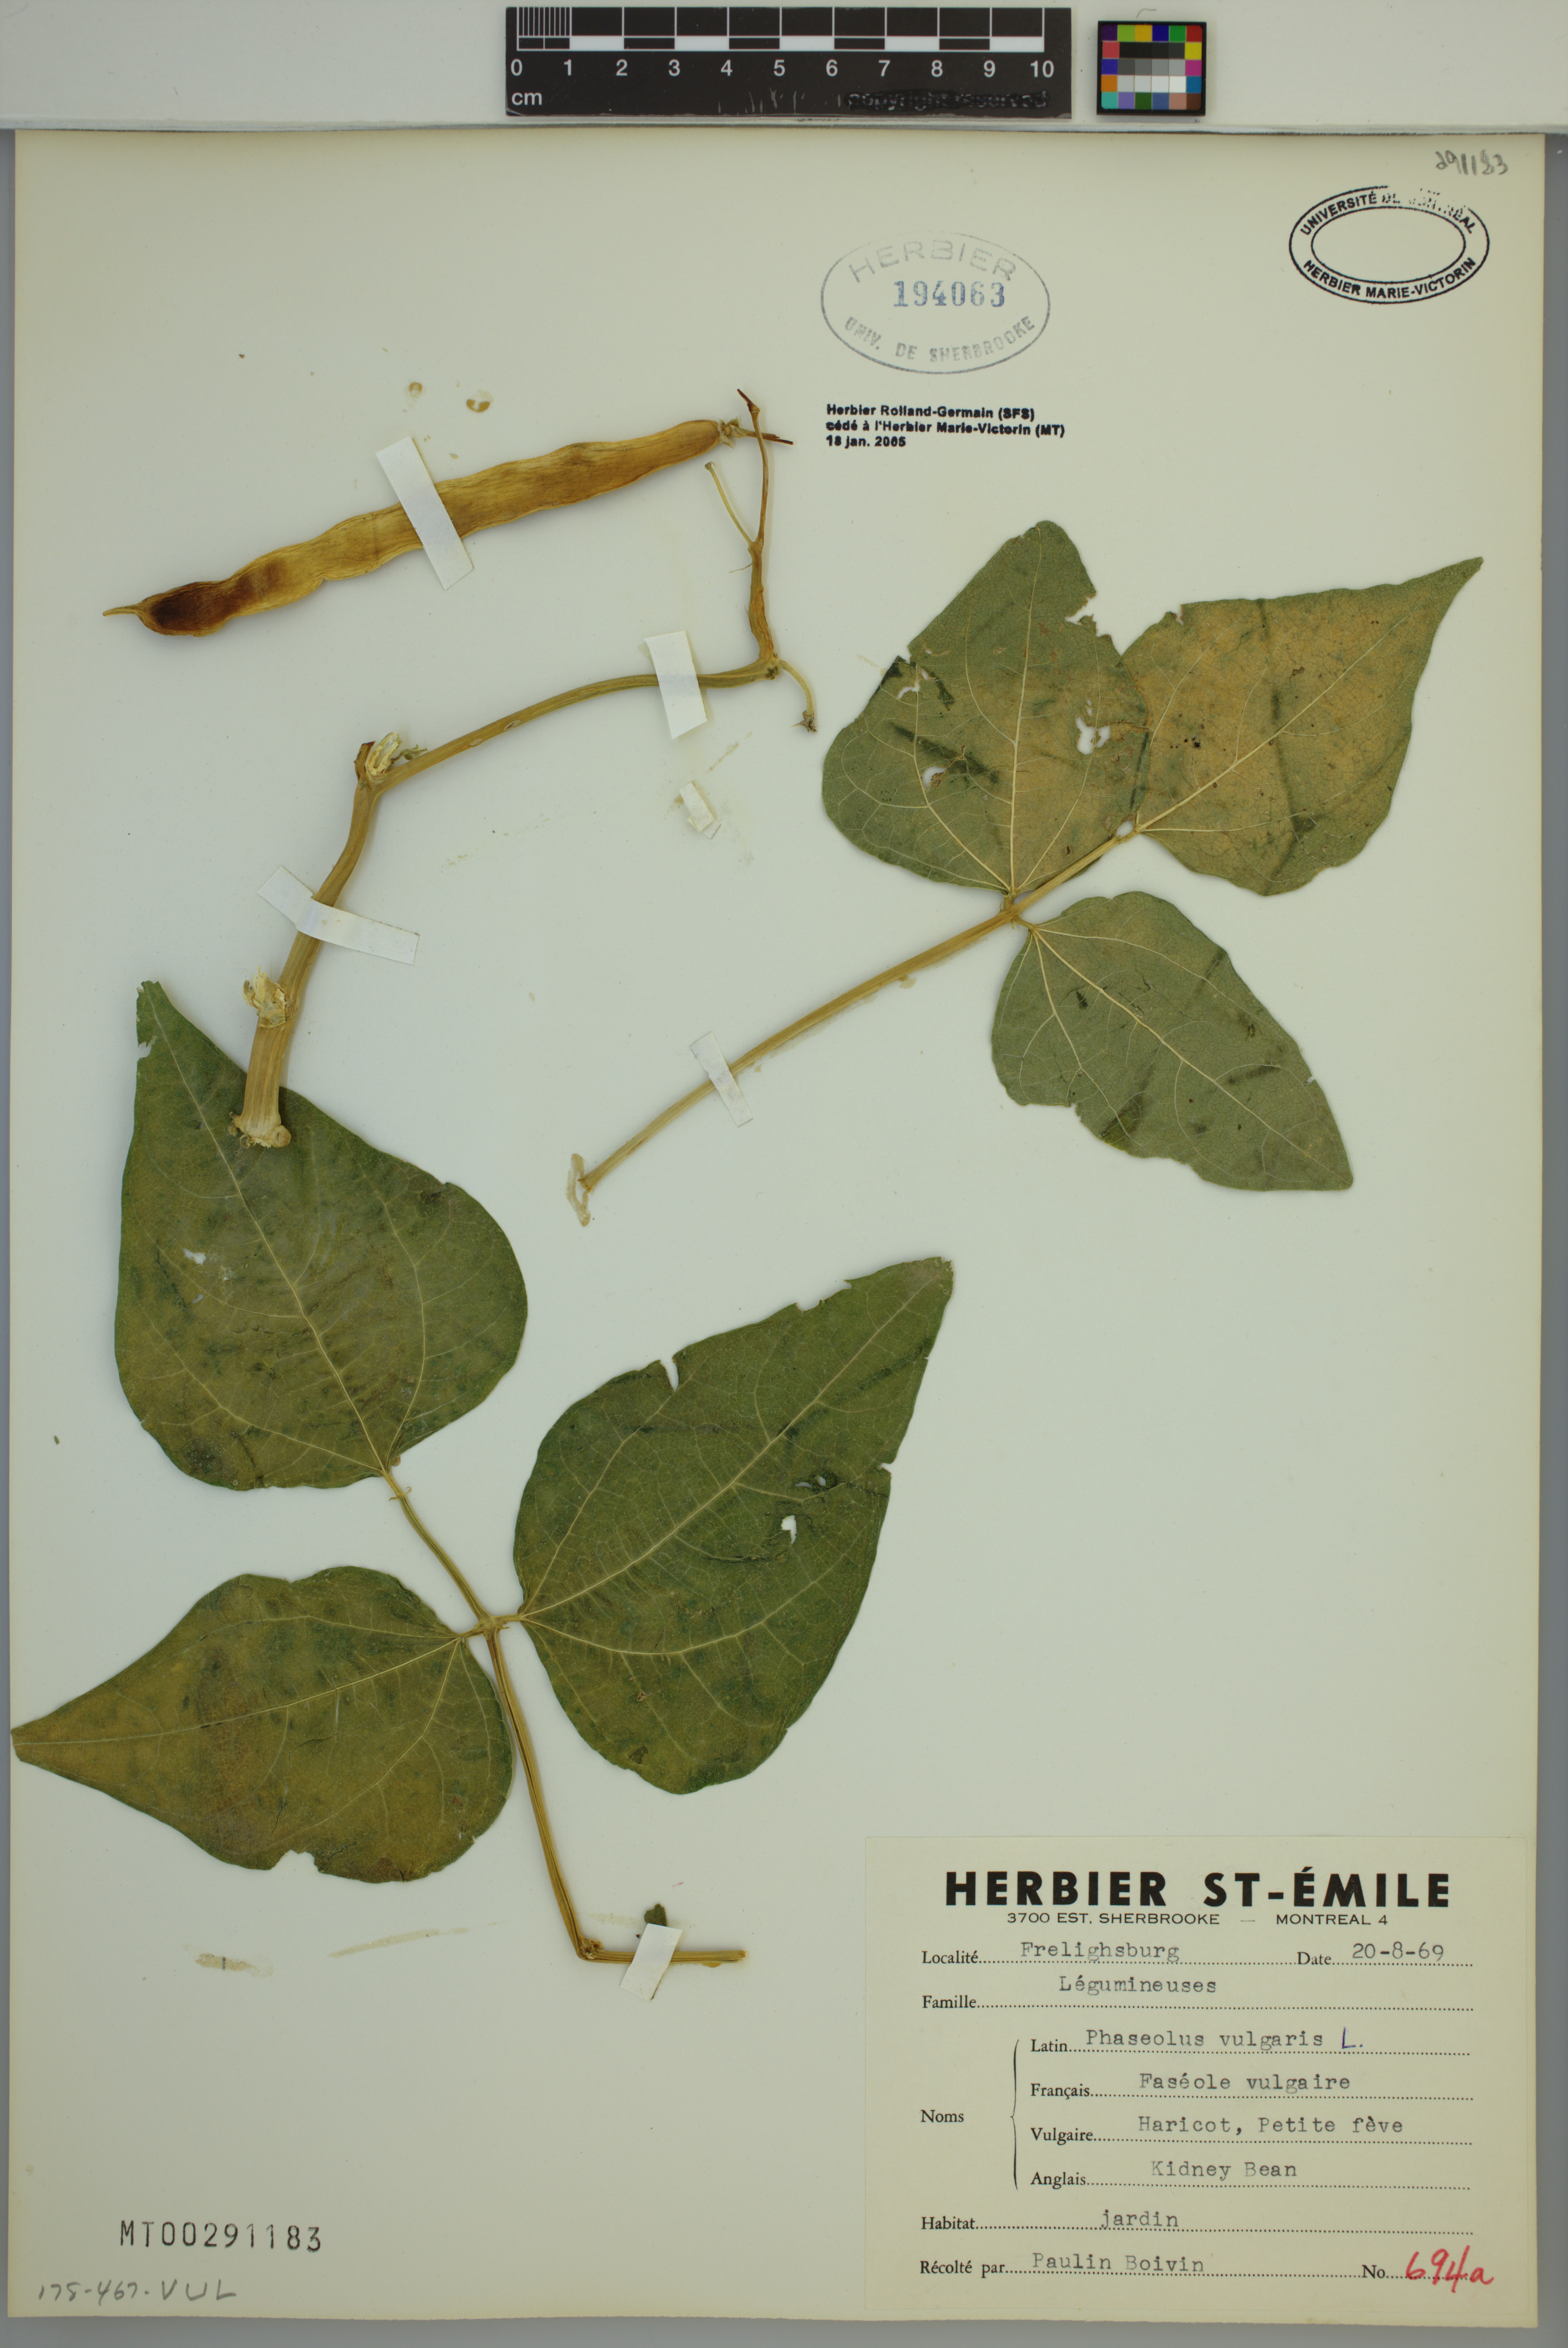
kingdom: Plantae
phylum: Tracheophyta
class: Magnoliopsida
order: Fabales
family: Fabaceae
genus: Phaseolus
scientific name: Phaseolus vulgaris
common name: Bean
